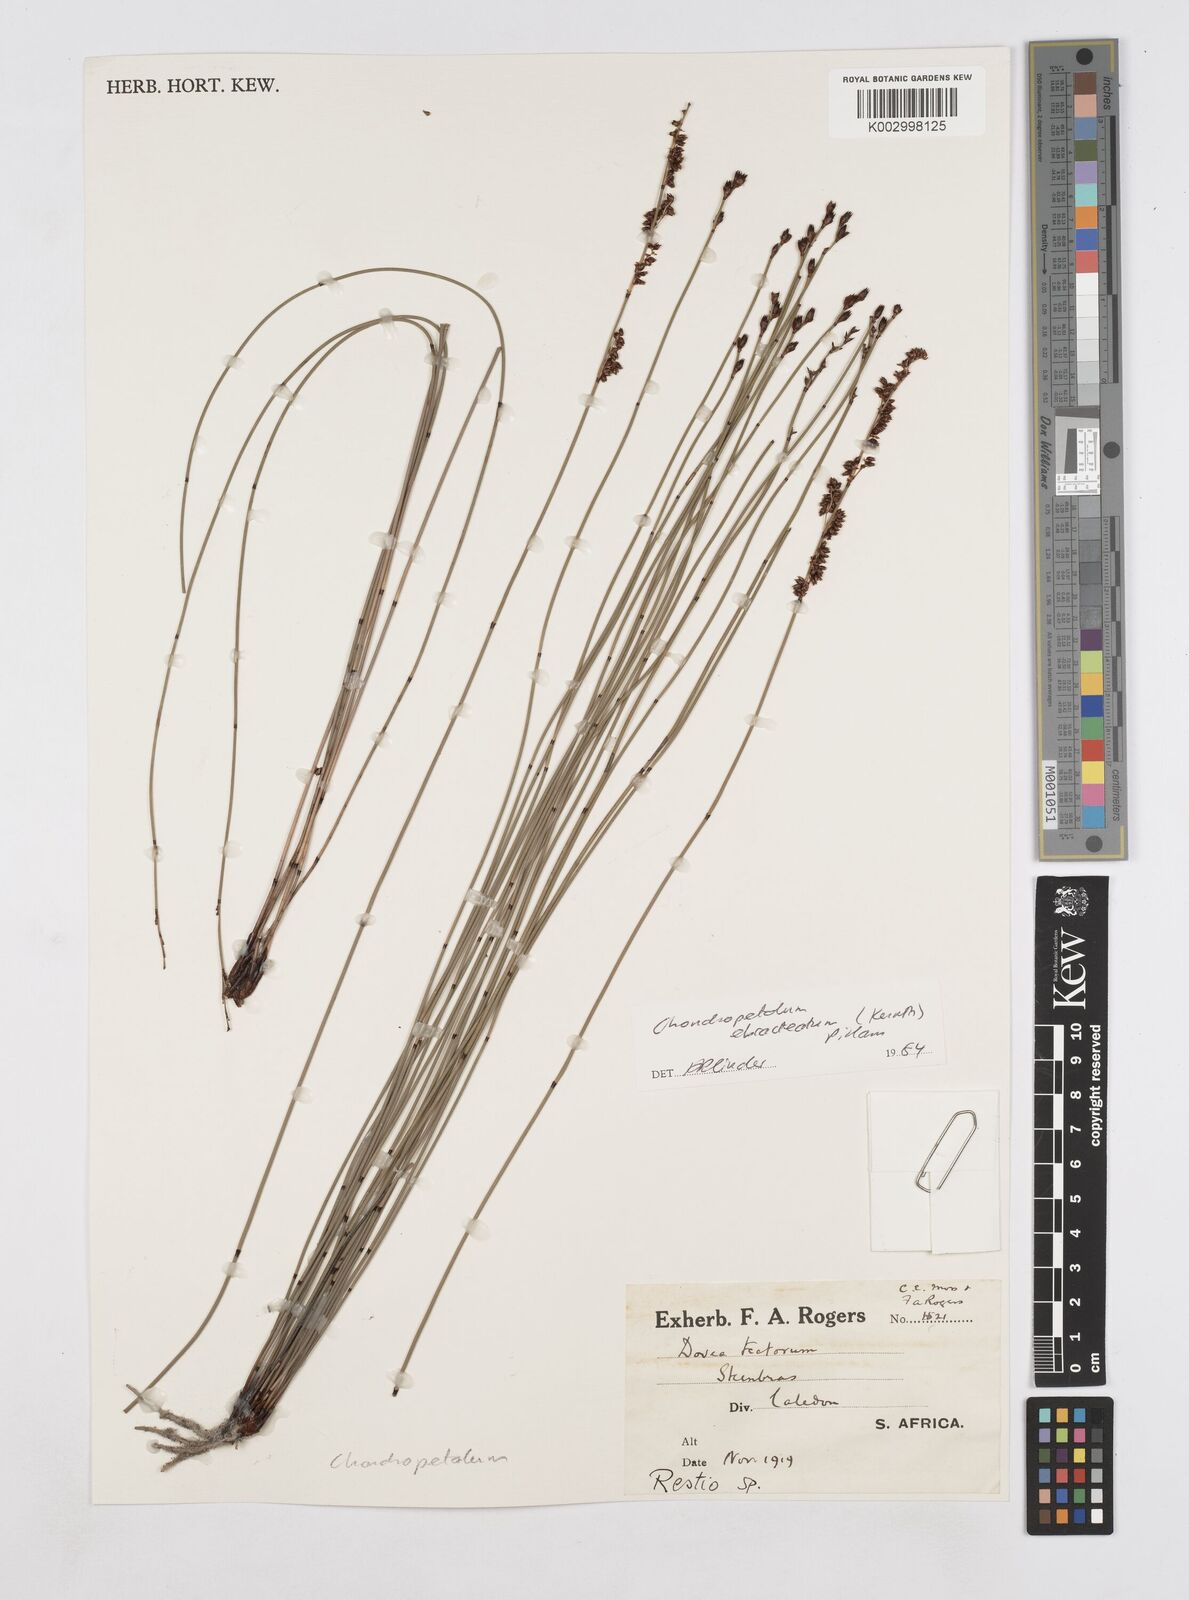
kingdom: Plantae
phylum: Tracheophyta
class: Liliopsida
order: Poales
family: Restionaceae
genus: Elegia
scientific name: Elegia ebracteata
